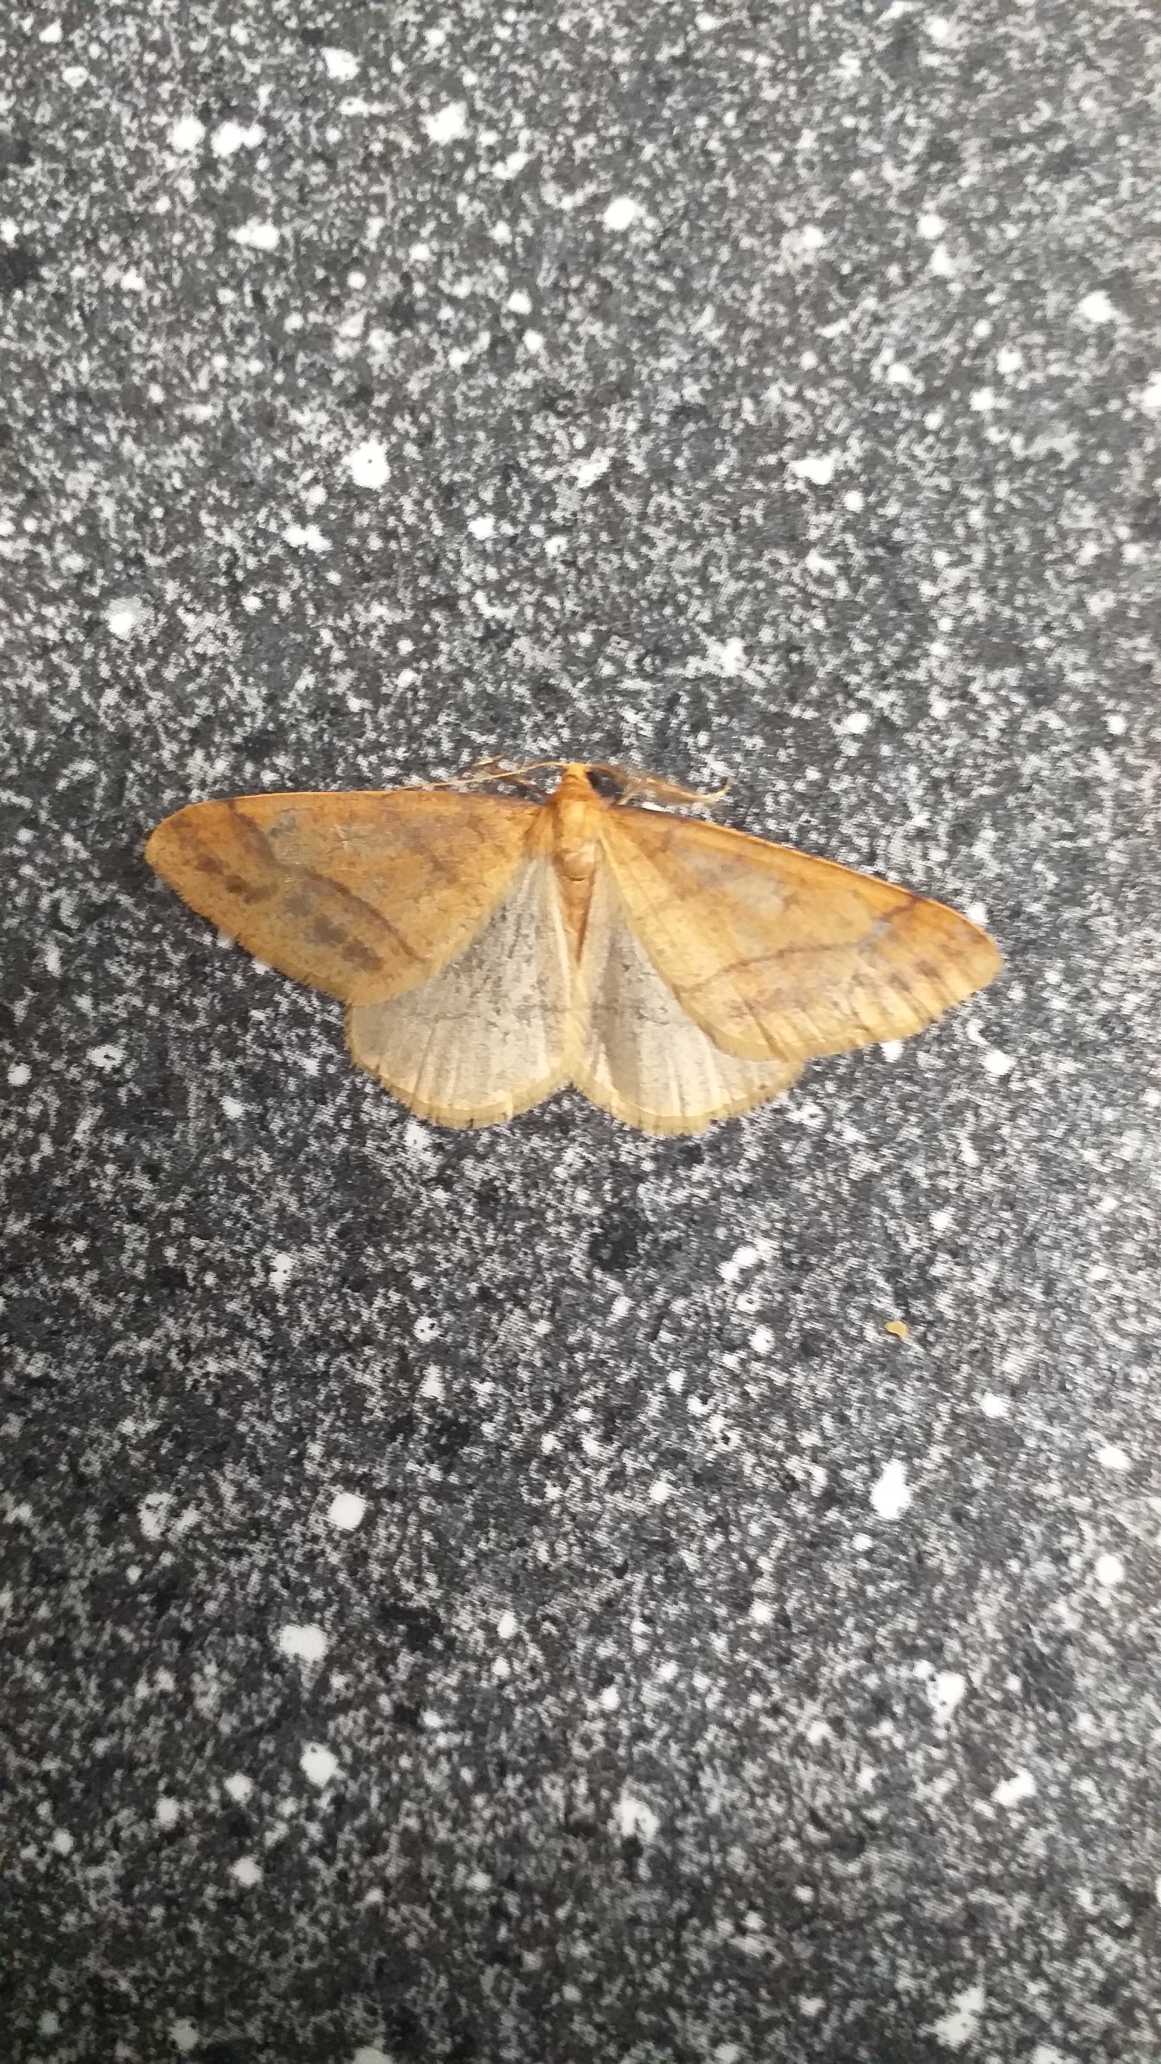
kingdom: Animalia
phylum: Arthropoda
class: Insecta
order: Lepidoptera
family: Geometridae
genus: Agriopis
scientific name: Agriopis aurantiaria
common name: Guldgul frostmåler
